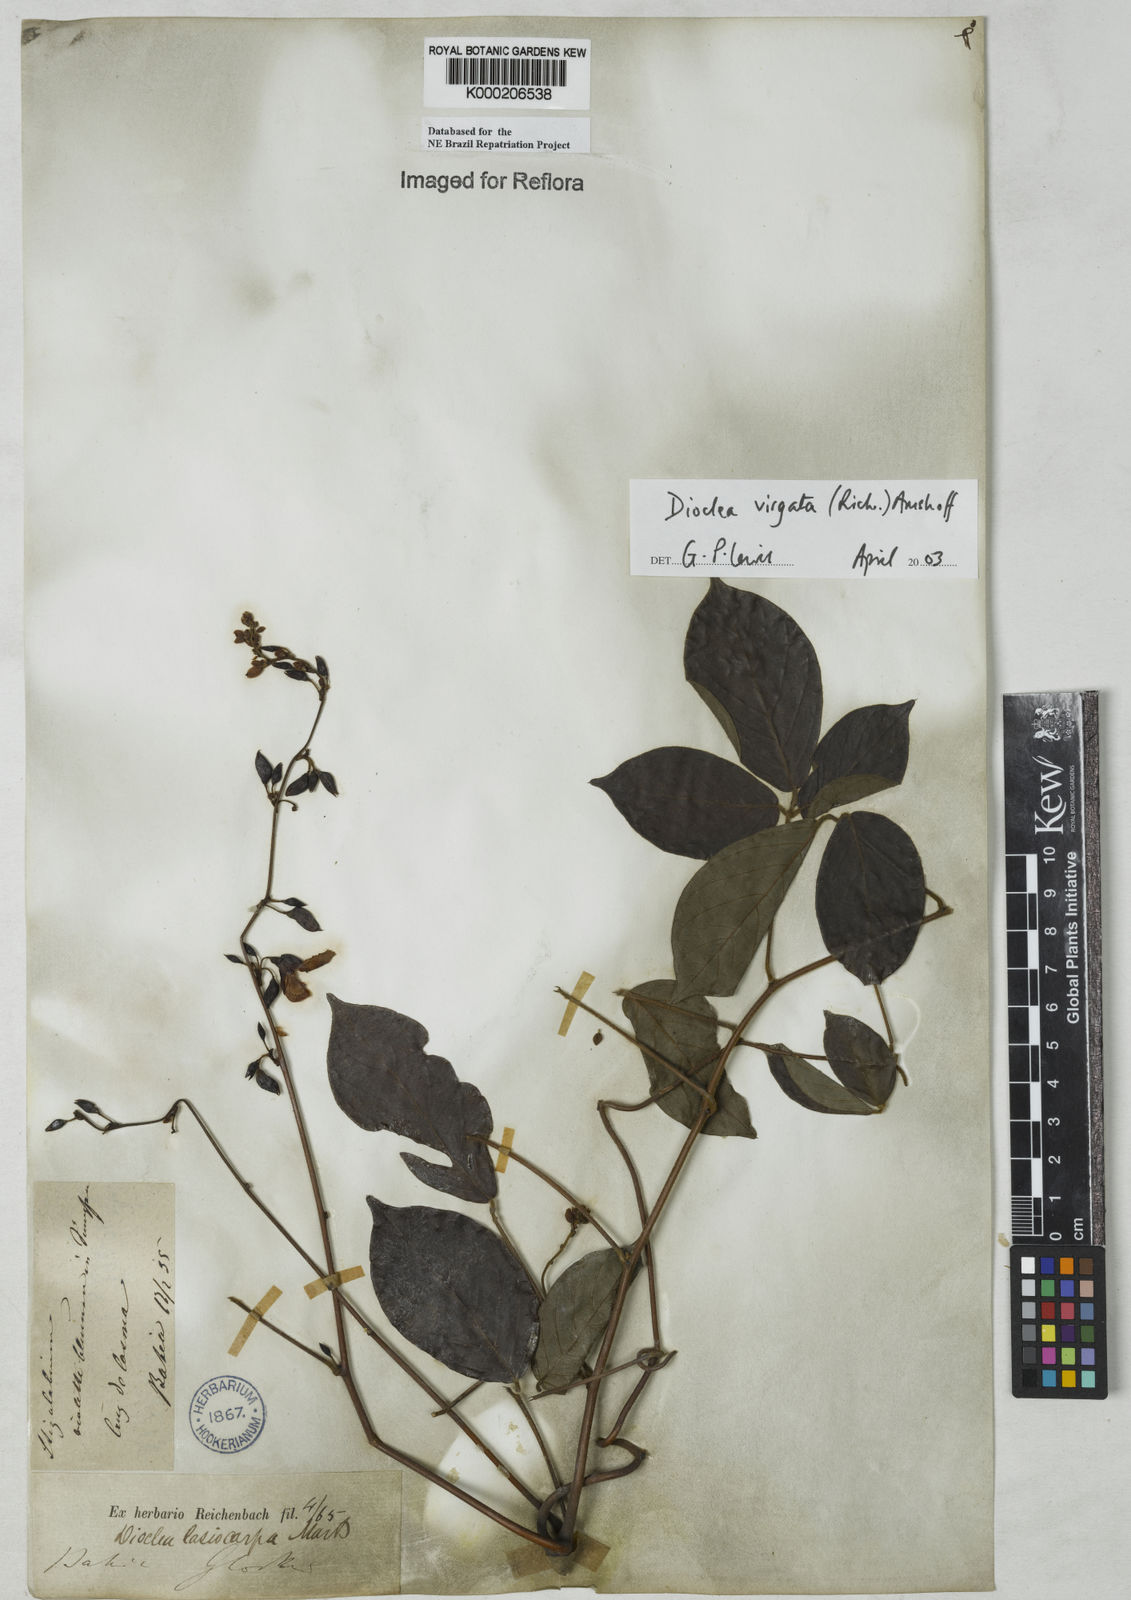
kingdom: Plantae
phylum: Tracheophyta
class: Magnoliopsida
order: Fabales
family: Fabaceae
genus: Dioclea
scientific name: Dioclea virgata
